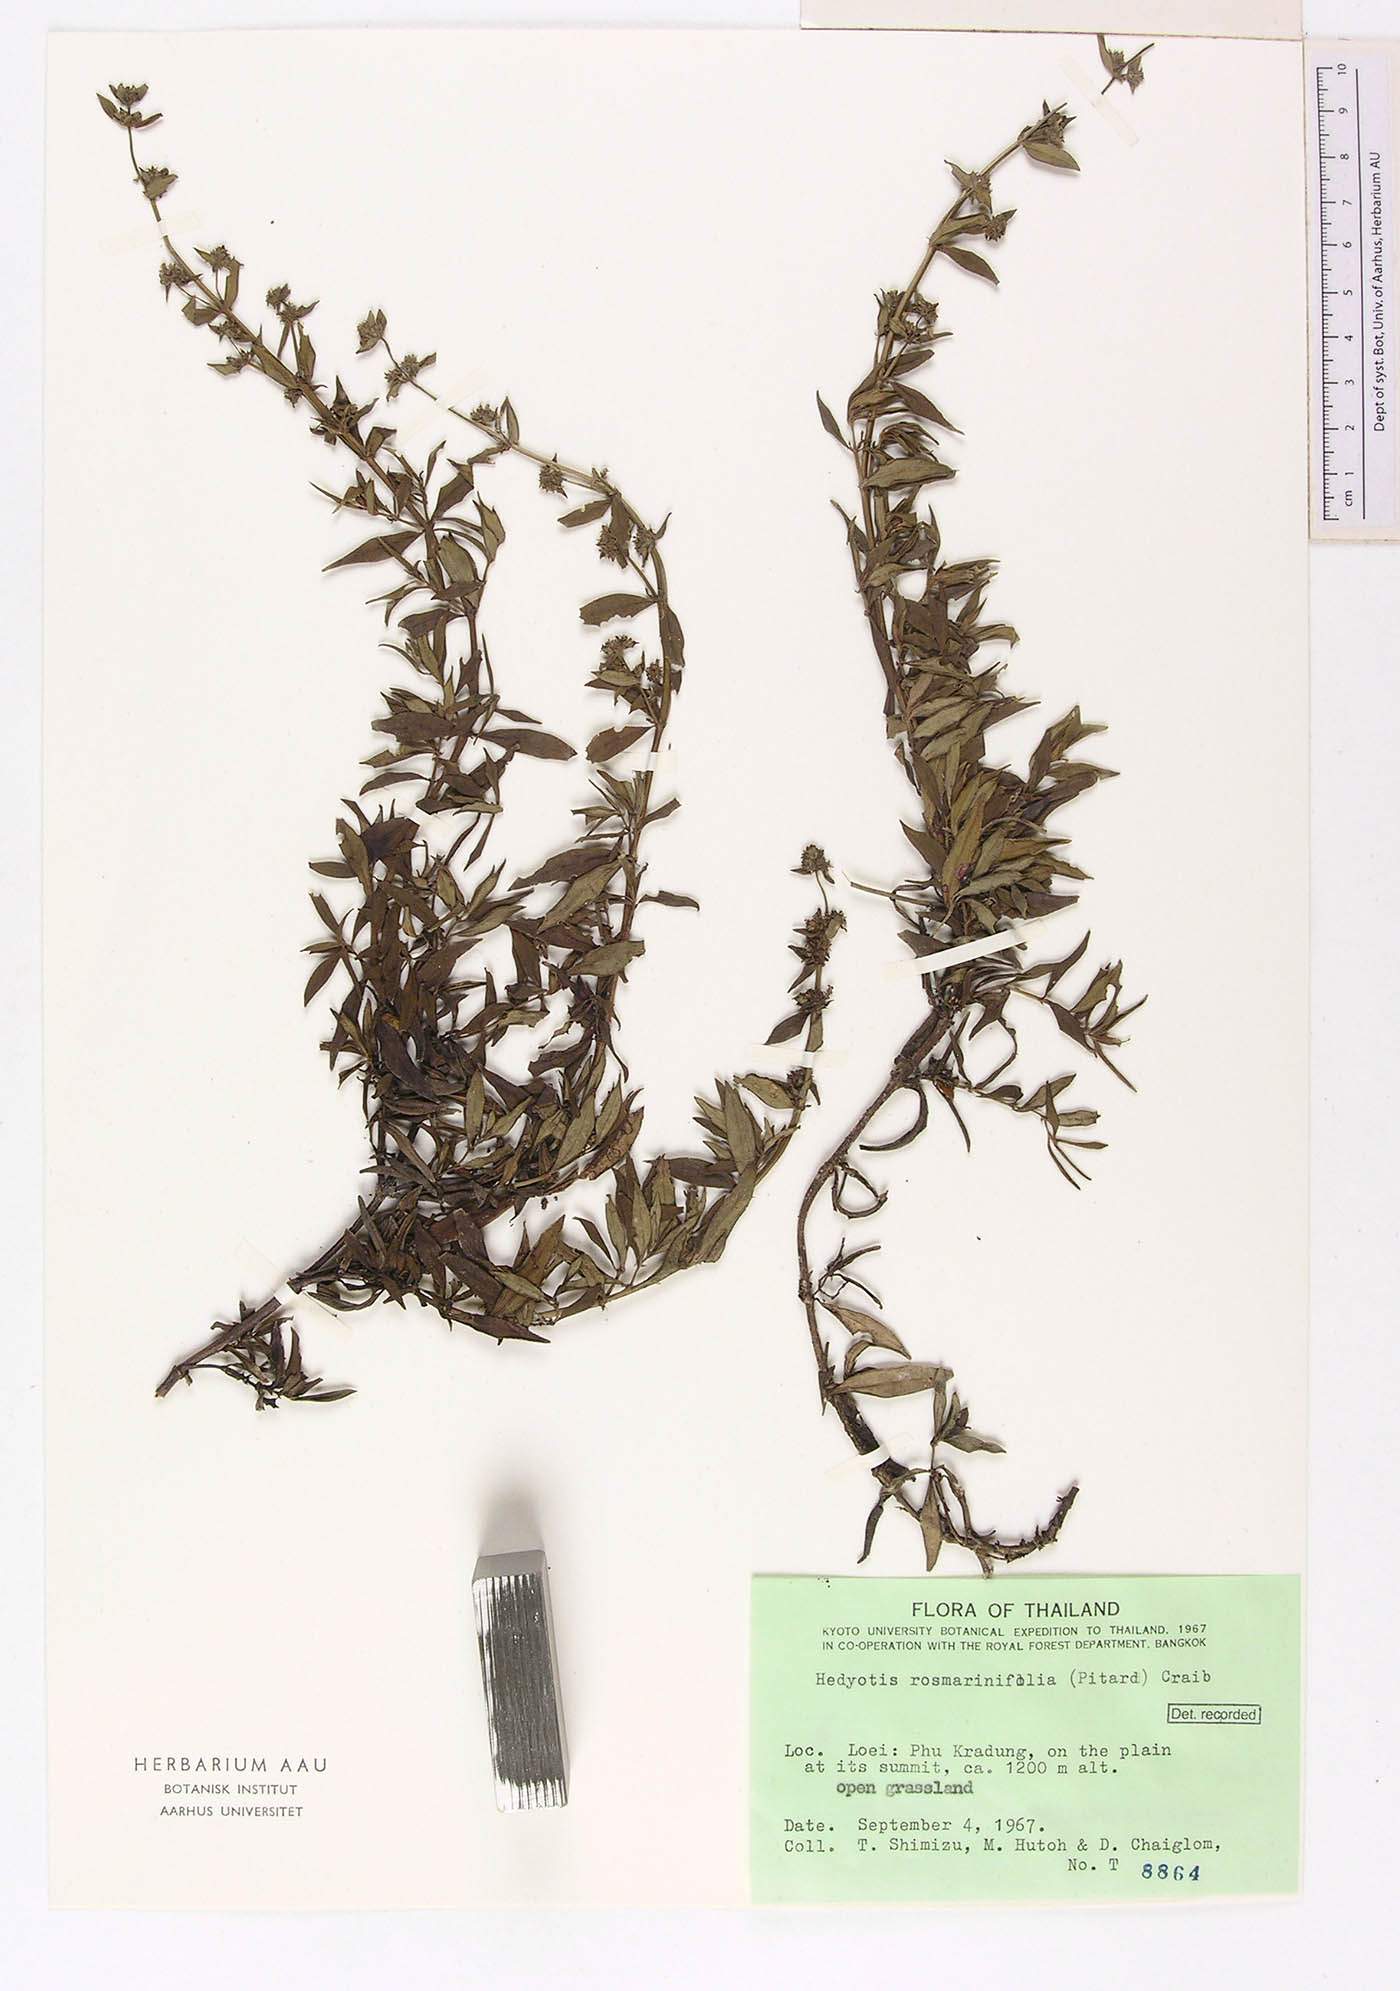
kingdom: Plantae
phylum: Tracheophyta
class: Magnoliopsida
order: Gentianales
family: Rubiaceae
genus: Hedyotis
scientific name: Hedyotis rosmarinifolia
